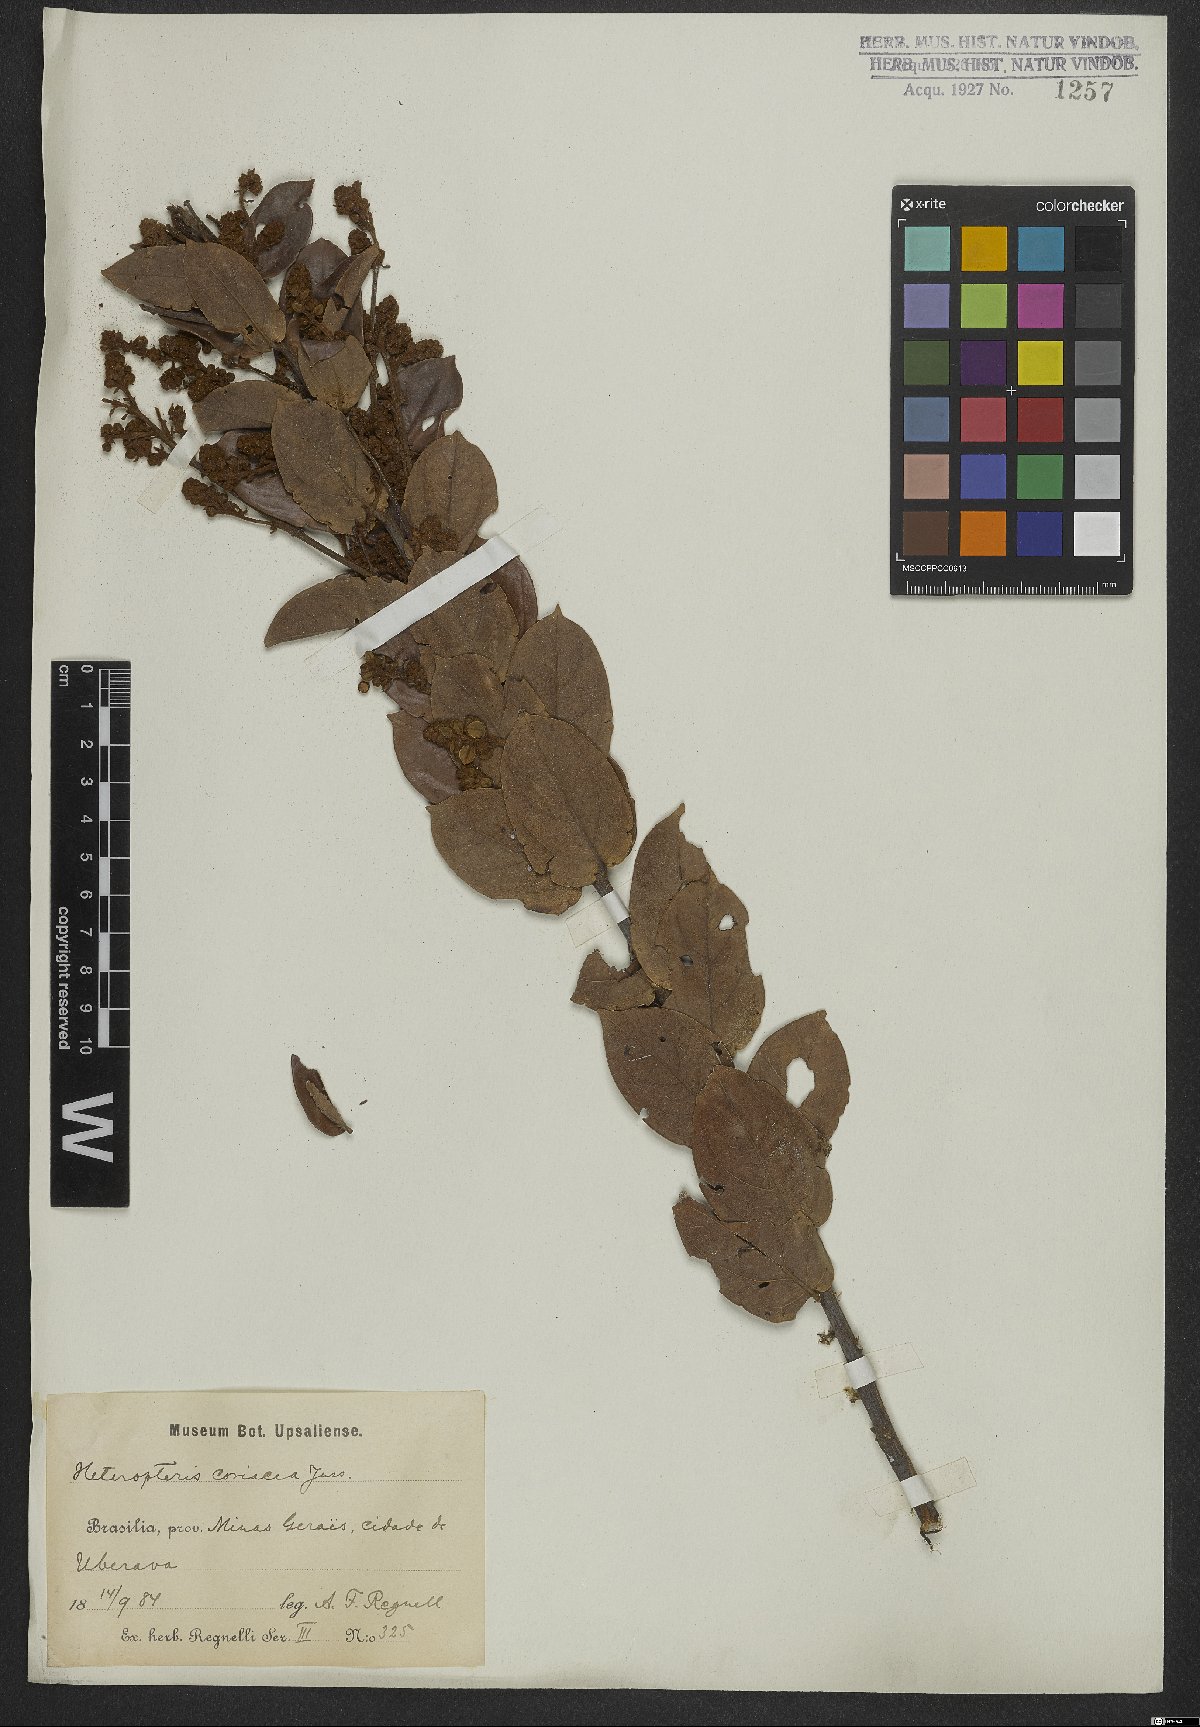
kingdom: Plantae
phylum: Tracheophyta
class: Magnoliopsida
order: Malpighiales
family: Malpighiaceae
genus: Heteropterys
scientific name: Heteropterys coriacea
